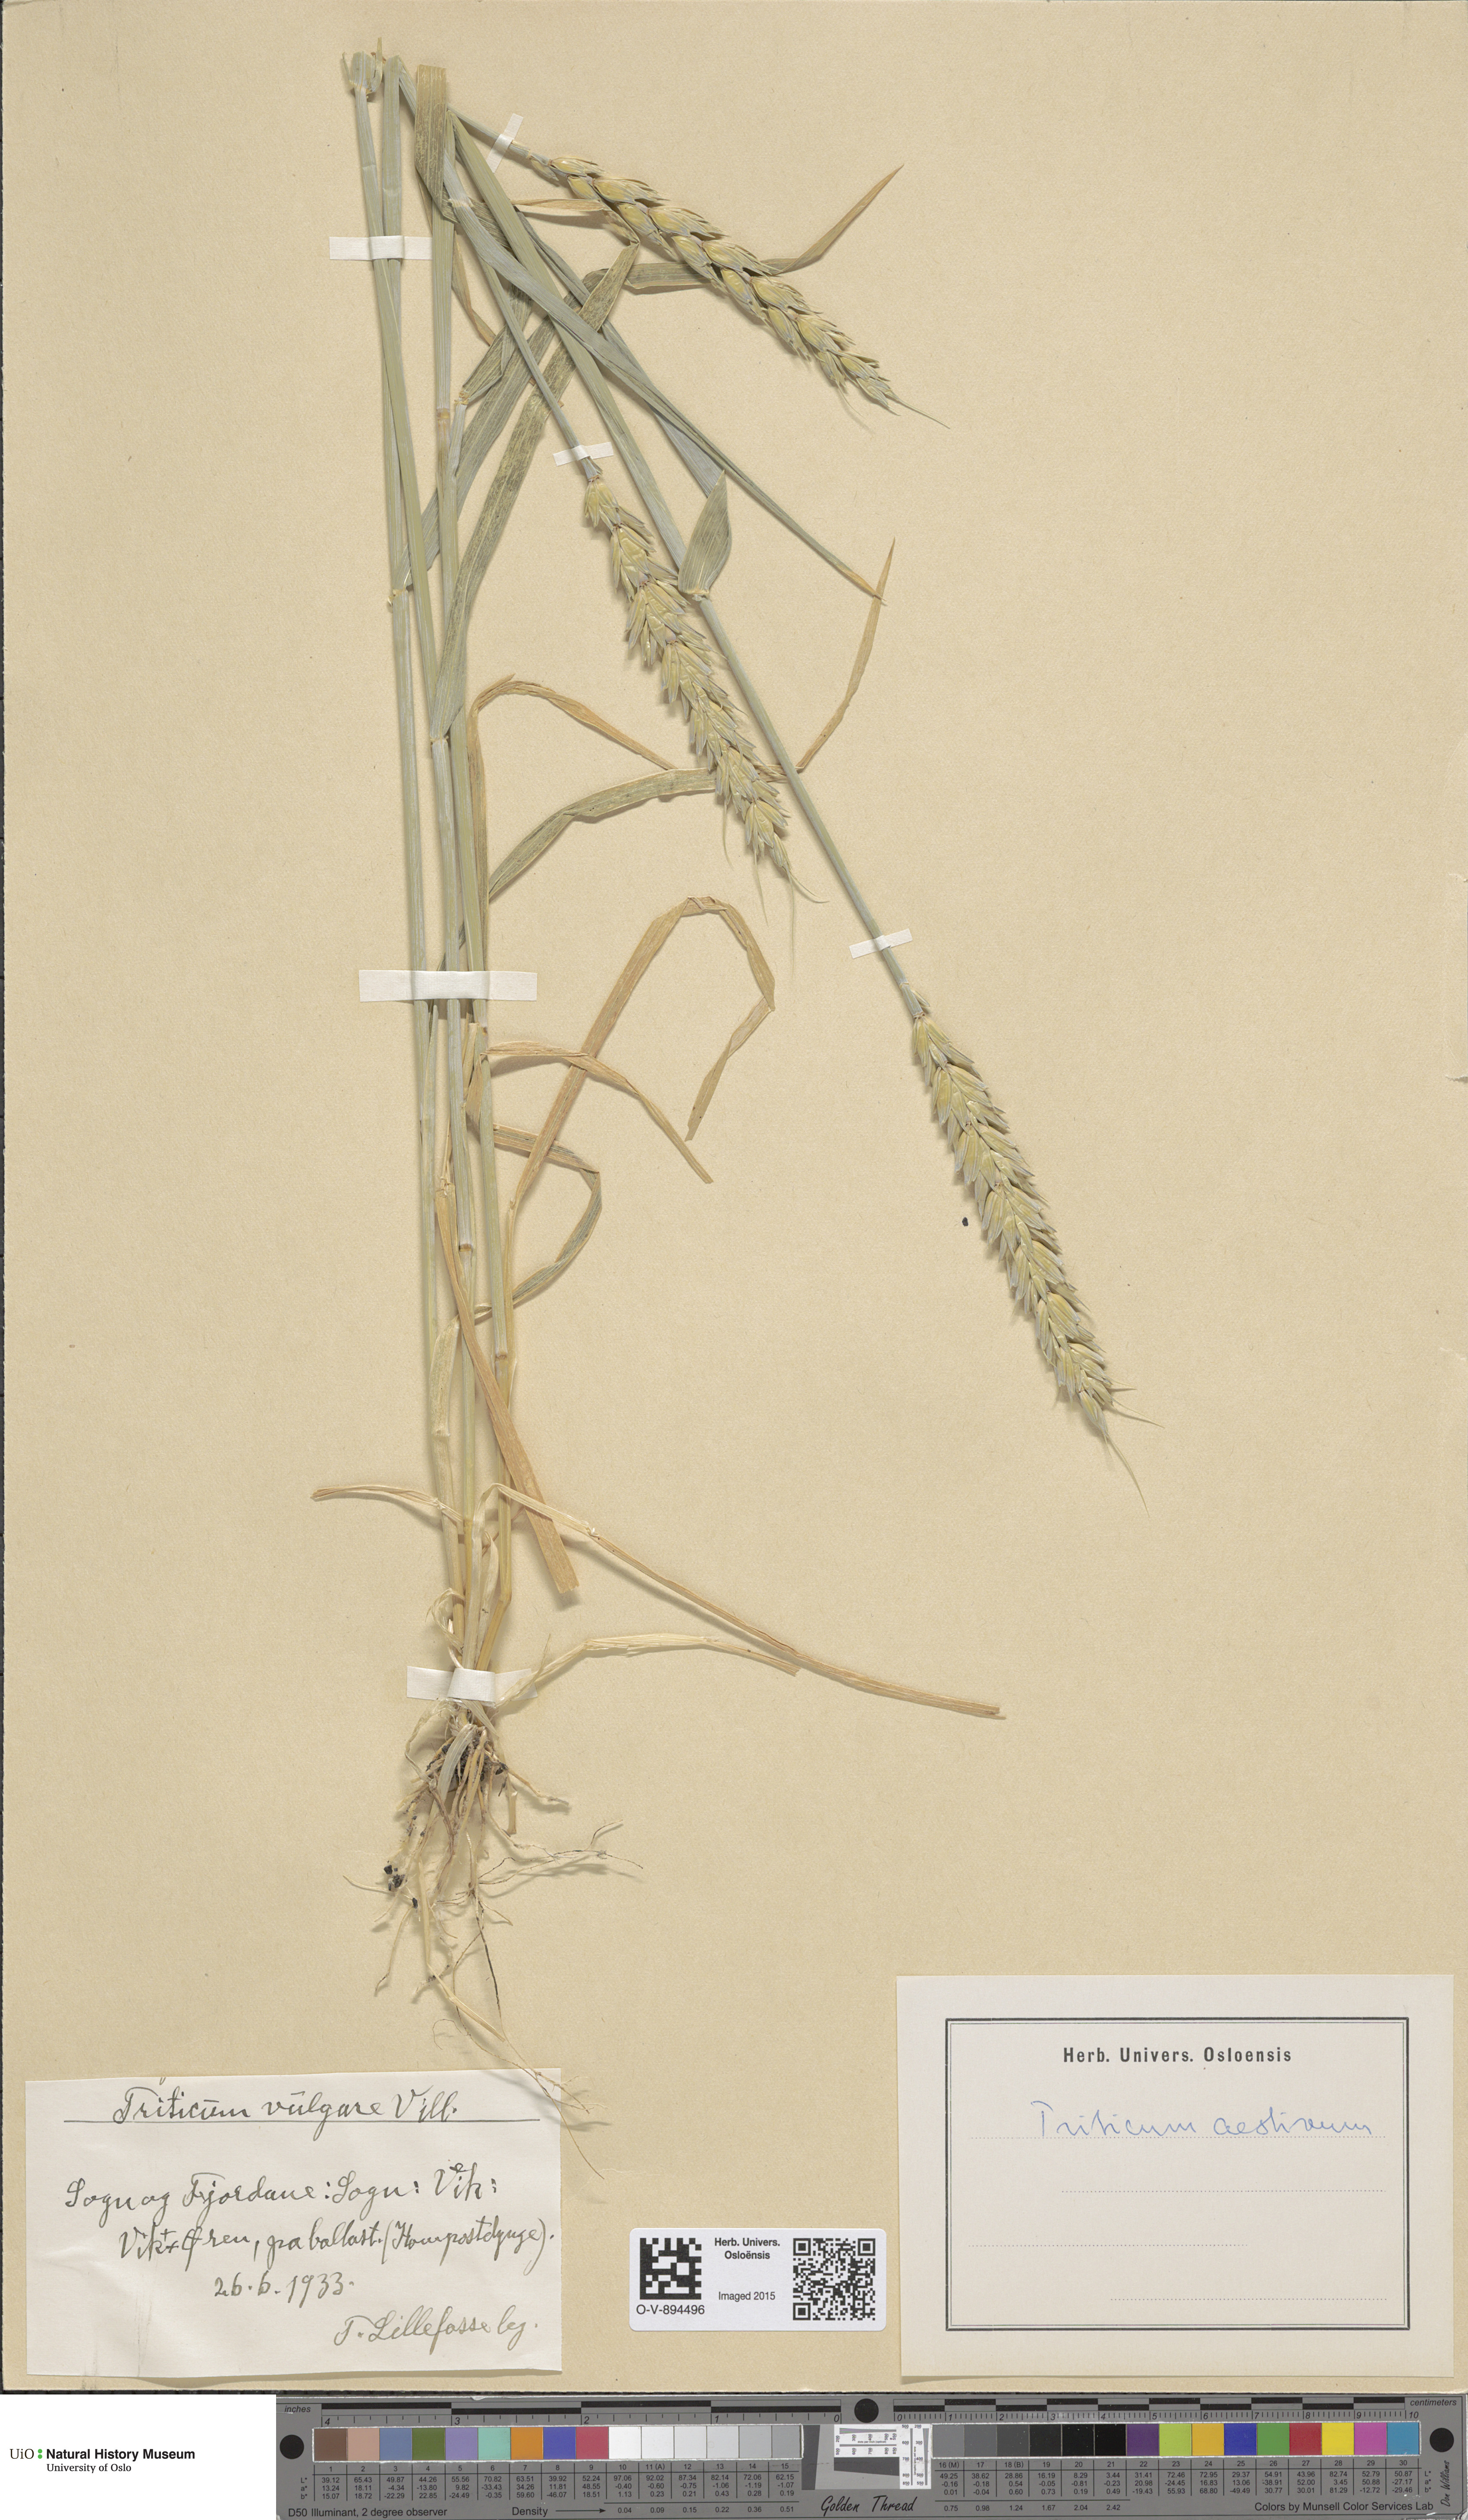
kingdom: Plantae
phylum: Tracheophyta
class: Liliopsida
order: Poales
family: Poaceae
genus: Triticum
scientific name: Triticum aestivum
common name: Common wheat
